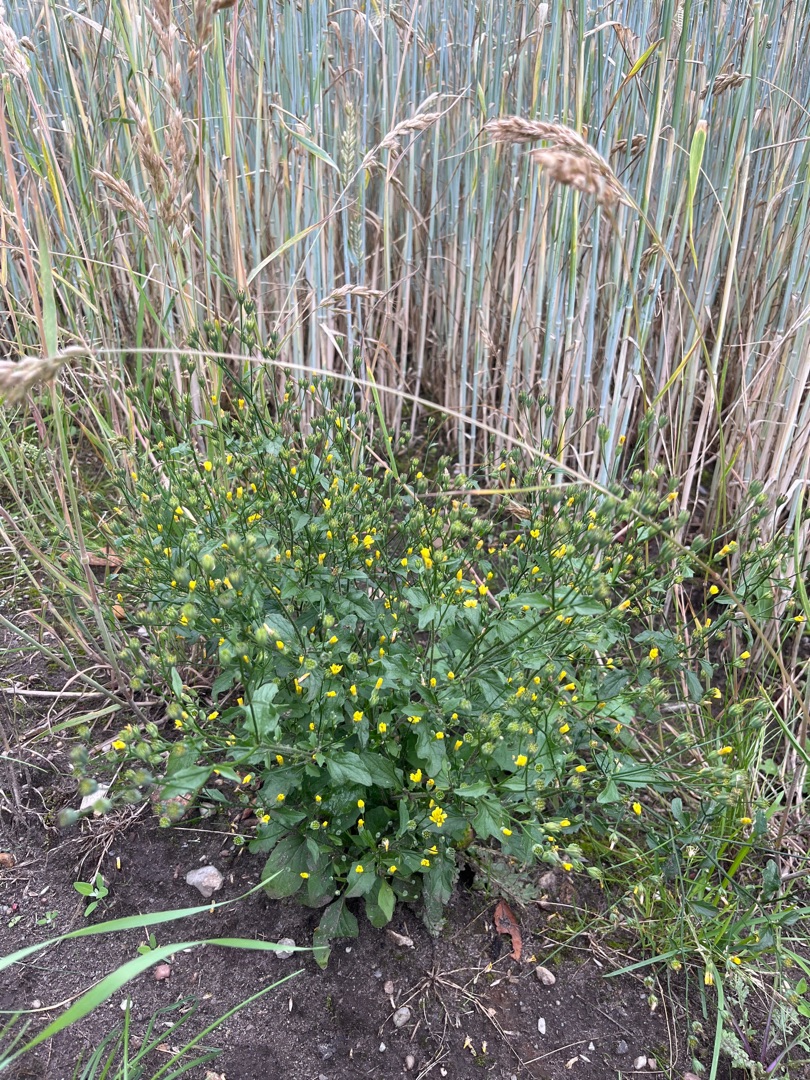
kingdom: Plantae
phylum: Tracheophyta
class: Magnoliopsida
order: Asterales
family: Asteraceae
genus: Lapsana
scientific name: Lapsana communis
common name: Haremad
